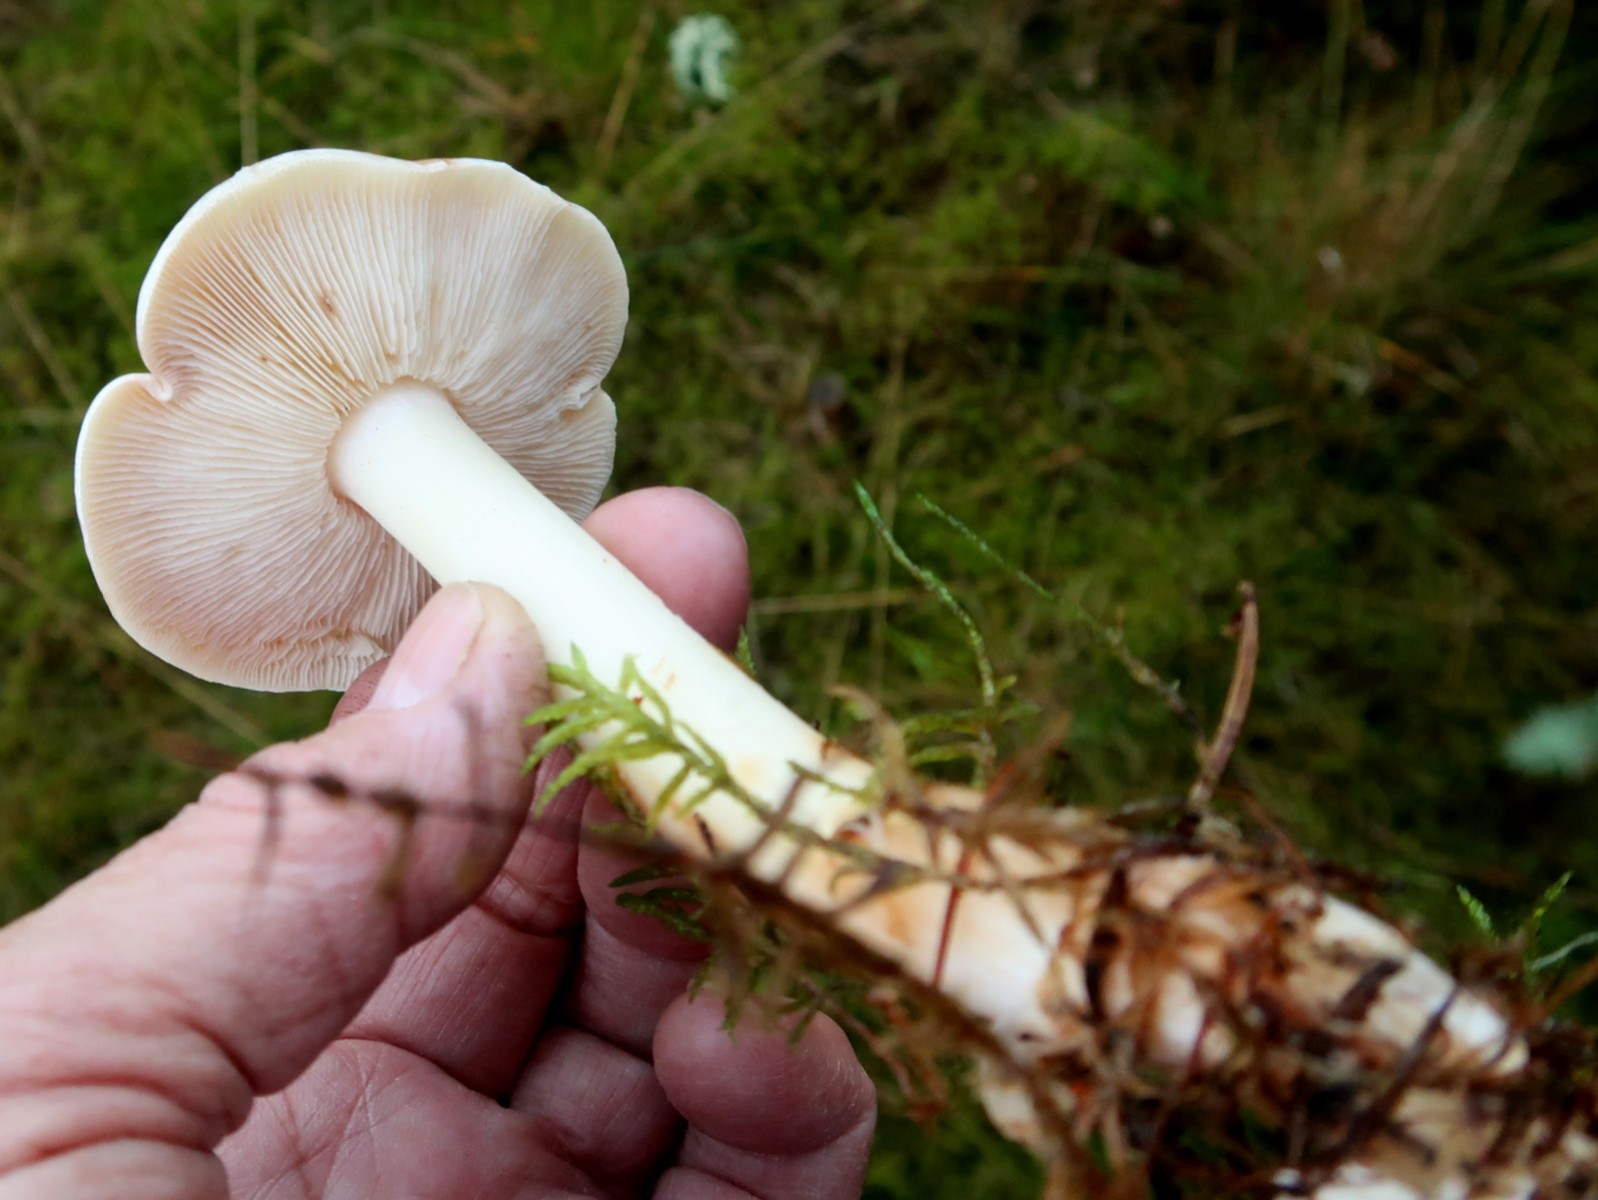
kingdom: Fungi
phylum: Basidiomycota
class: Agaricomycetes
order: Agaricales
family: Omphalotaceae
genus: Rhodocollybia
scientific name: Rhodocollybia maculata
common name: plettet fladhat
